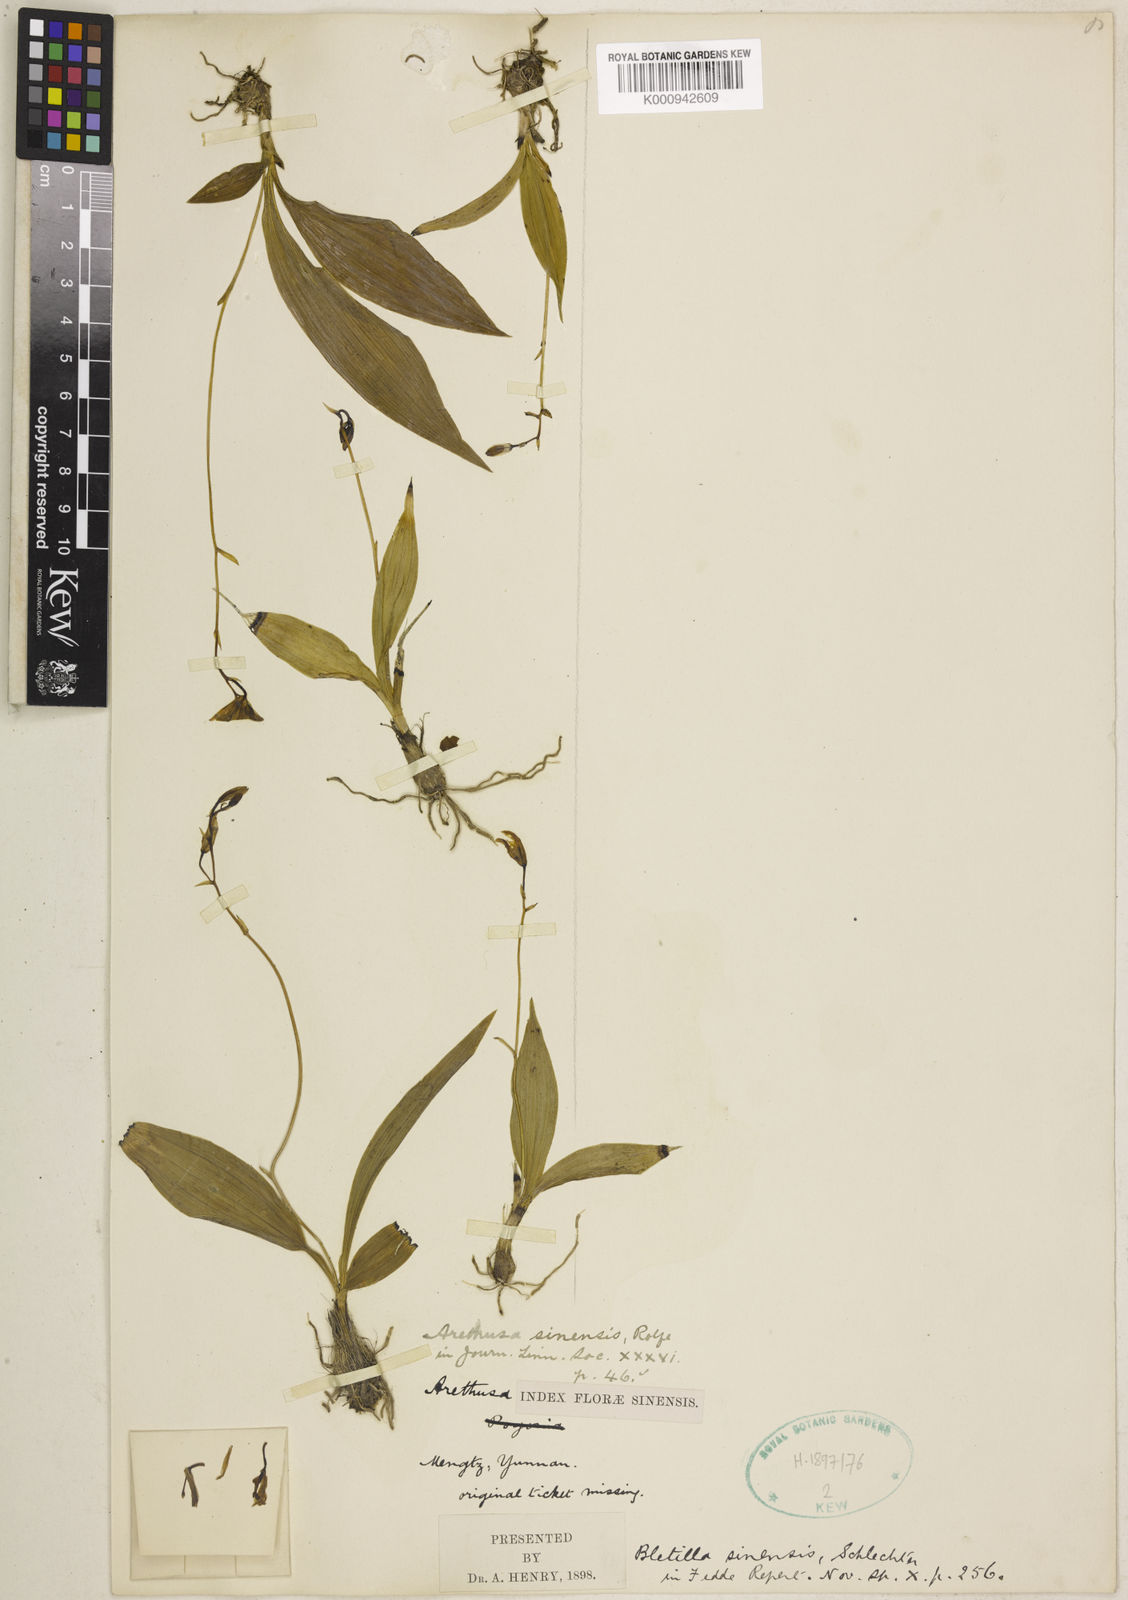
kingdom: Plantae
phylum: Tracheophyta
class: Liliopsida
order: Asparagales
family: Orchidaceae
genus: Bletilla
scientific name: Bletilla foliosa
